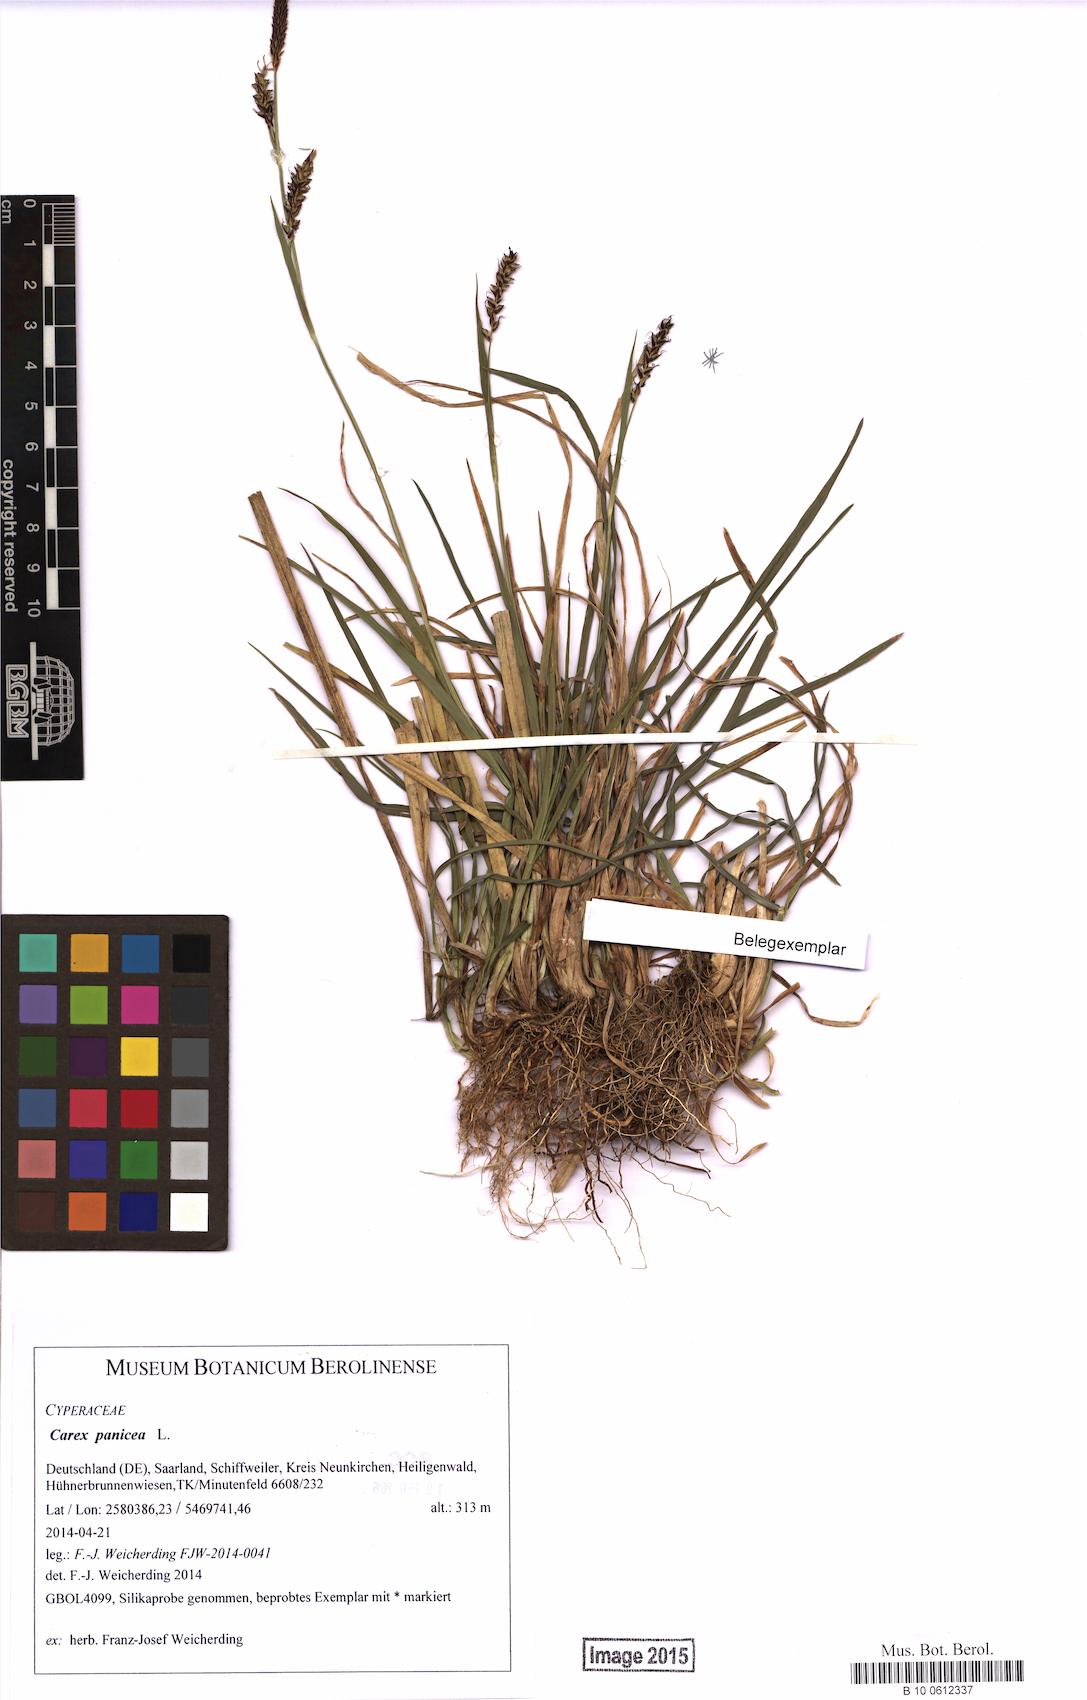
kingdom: Plantae
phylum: Tracheophyta
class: Liliopsida
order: Poales
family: Cyperaceae
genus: Carex
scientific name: Carex panicea
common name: Carnation sedge
